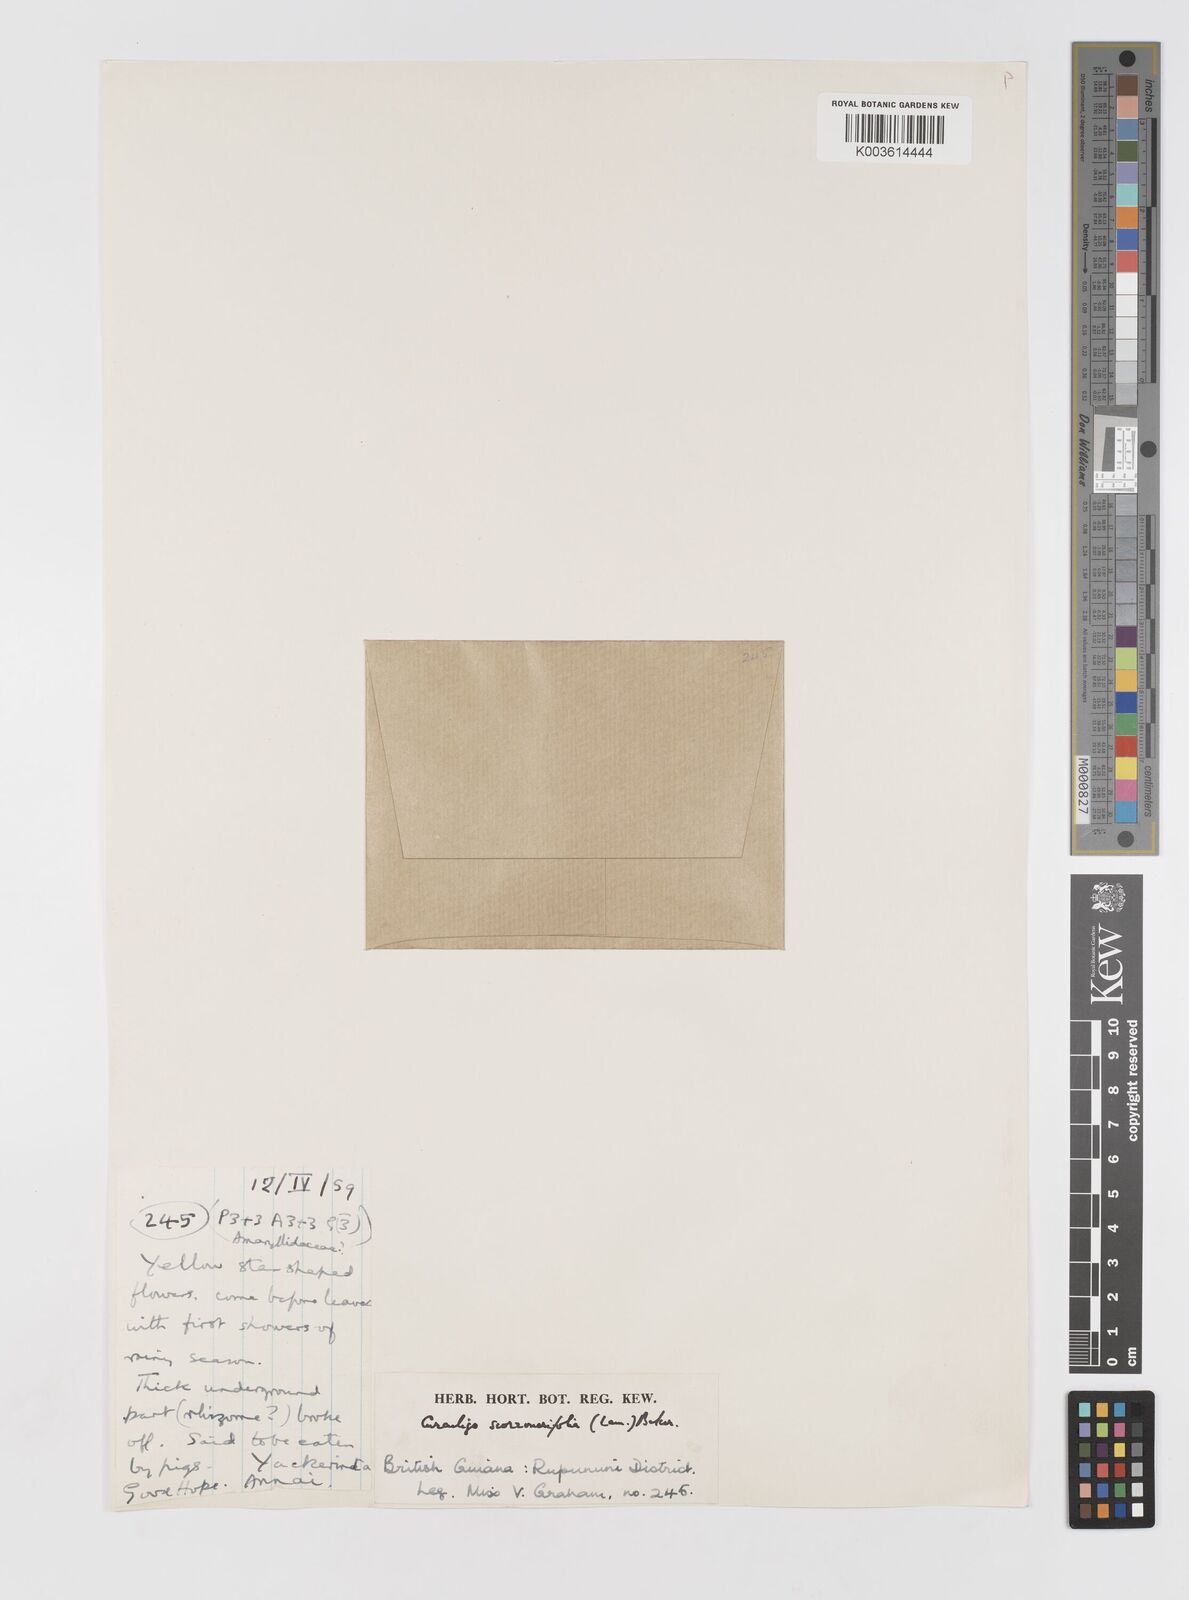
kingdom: Plantae
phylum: Tracheophyta
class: Liliopsida
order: Asparagales
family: Hypoxidaceae
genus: Curculigo
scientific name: Curculigo scorzonerifolia
